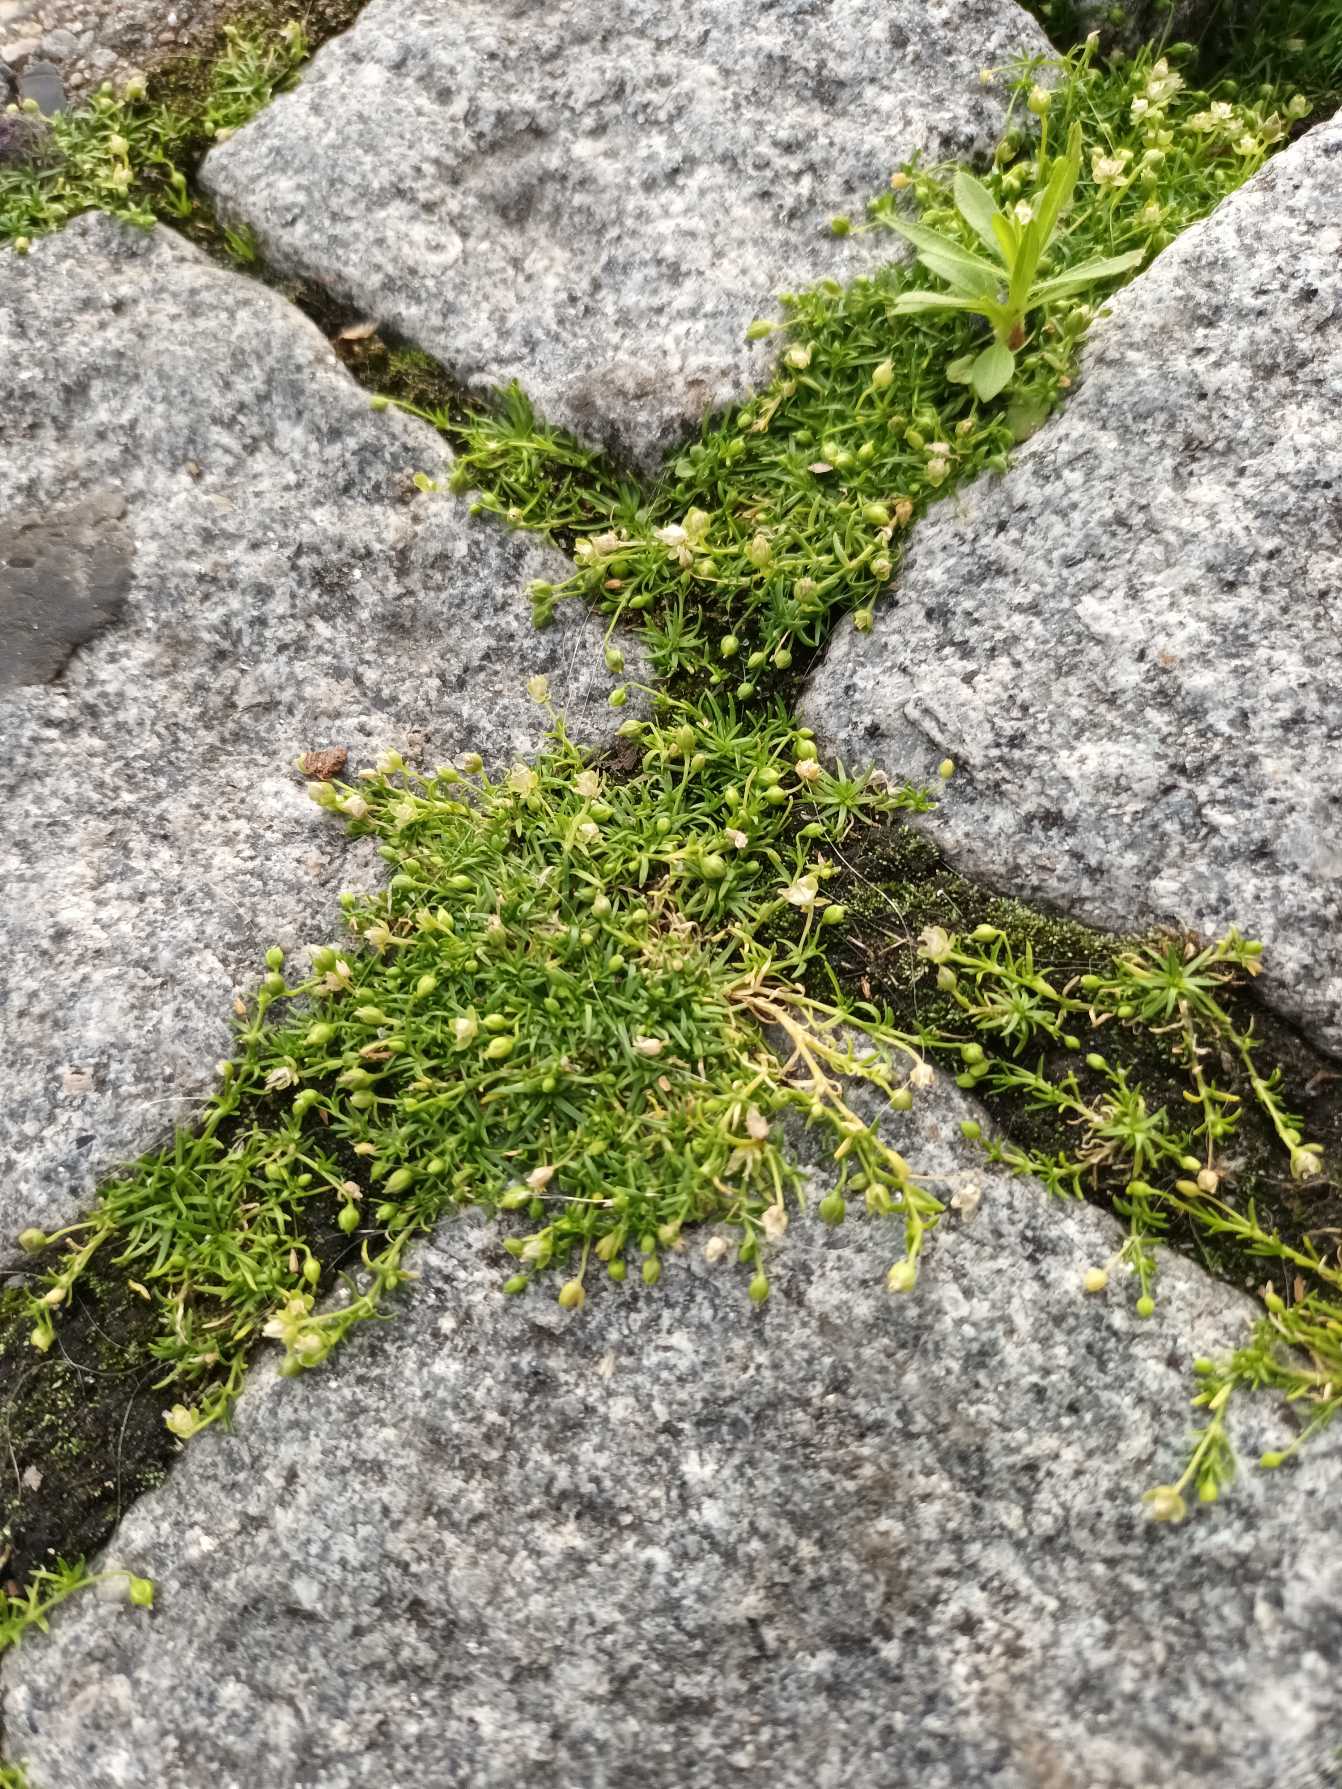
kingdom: Plantae
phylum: Tracheophyta
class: Magnoliopsida
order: Caryophyllales
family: Caryophyllaceae
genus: Sagina
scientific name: Sagina procumbens
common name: Almindelig firling
